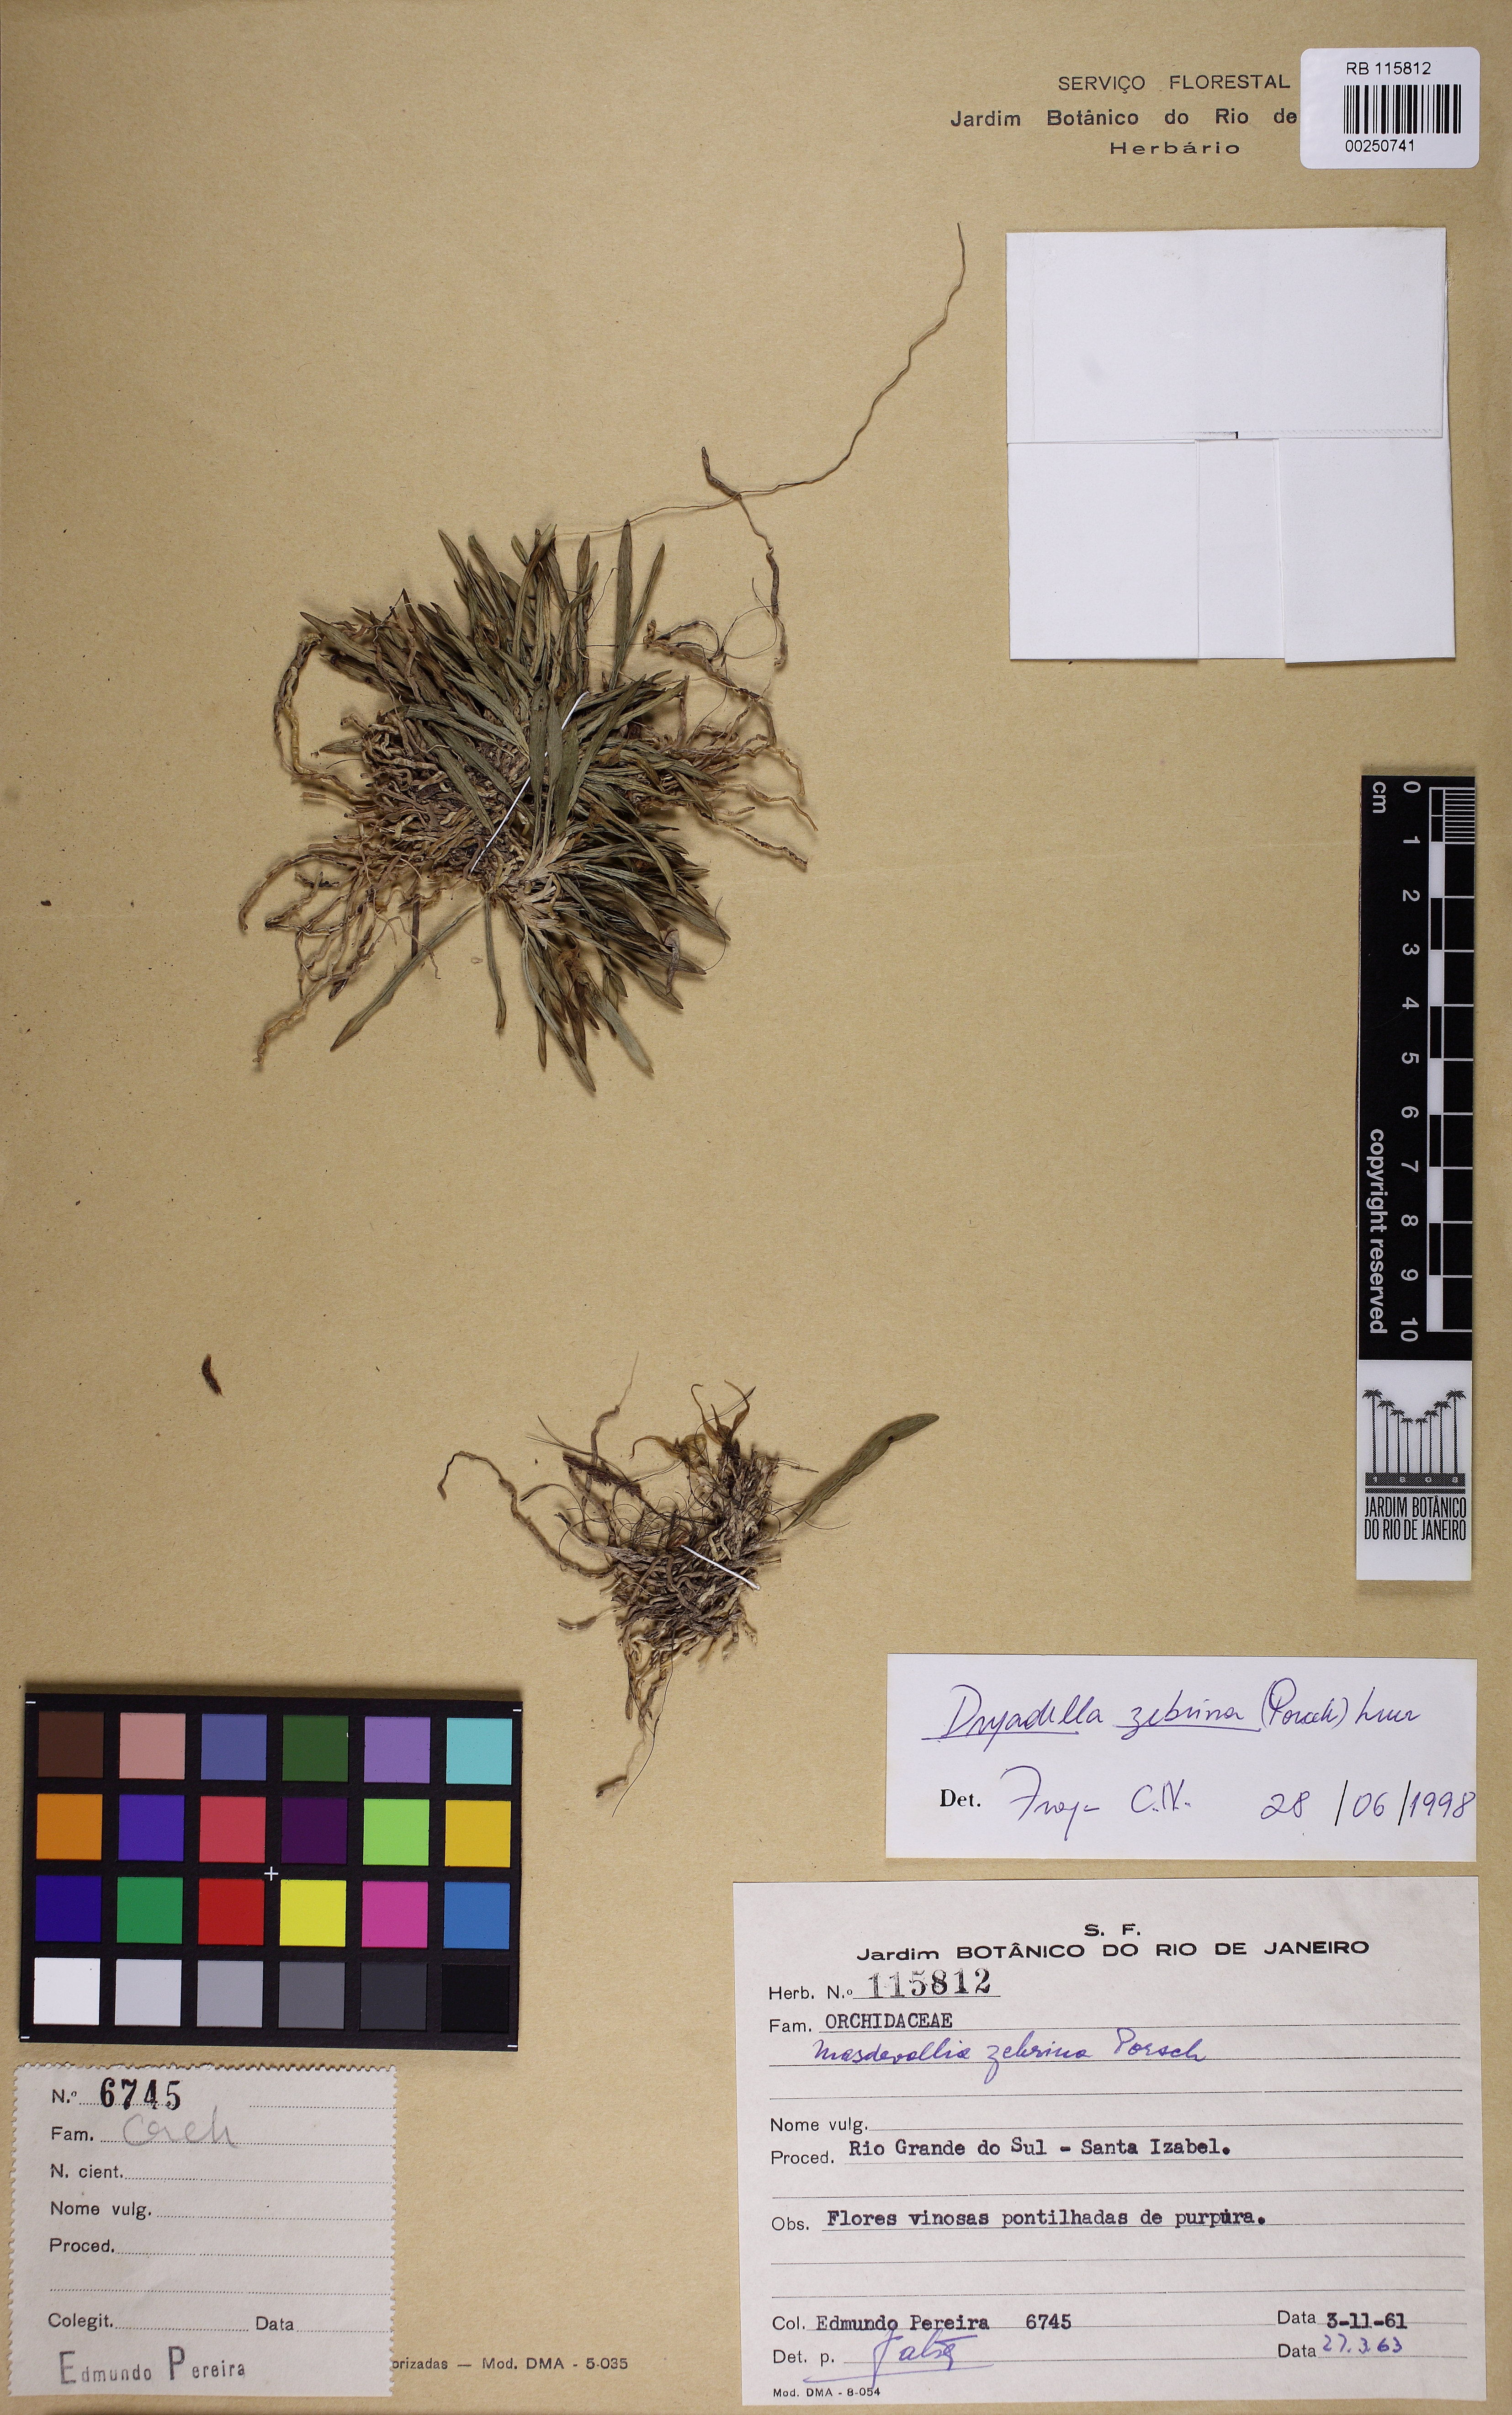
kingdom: Plantae
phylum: Tracheophyta
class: Liliopsida
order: Asparagales
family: Orchidaceae
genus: Dryadella
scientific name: Dryadella zebrina
